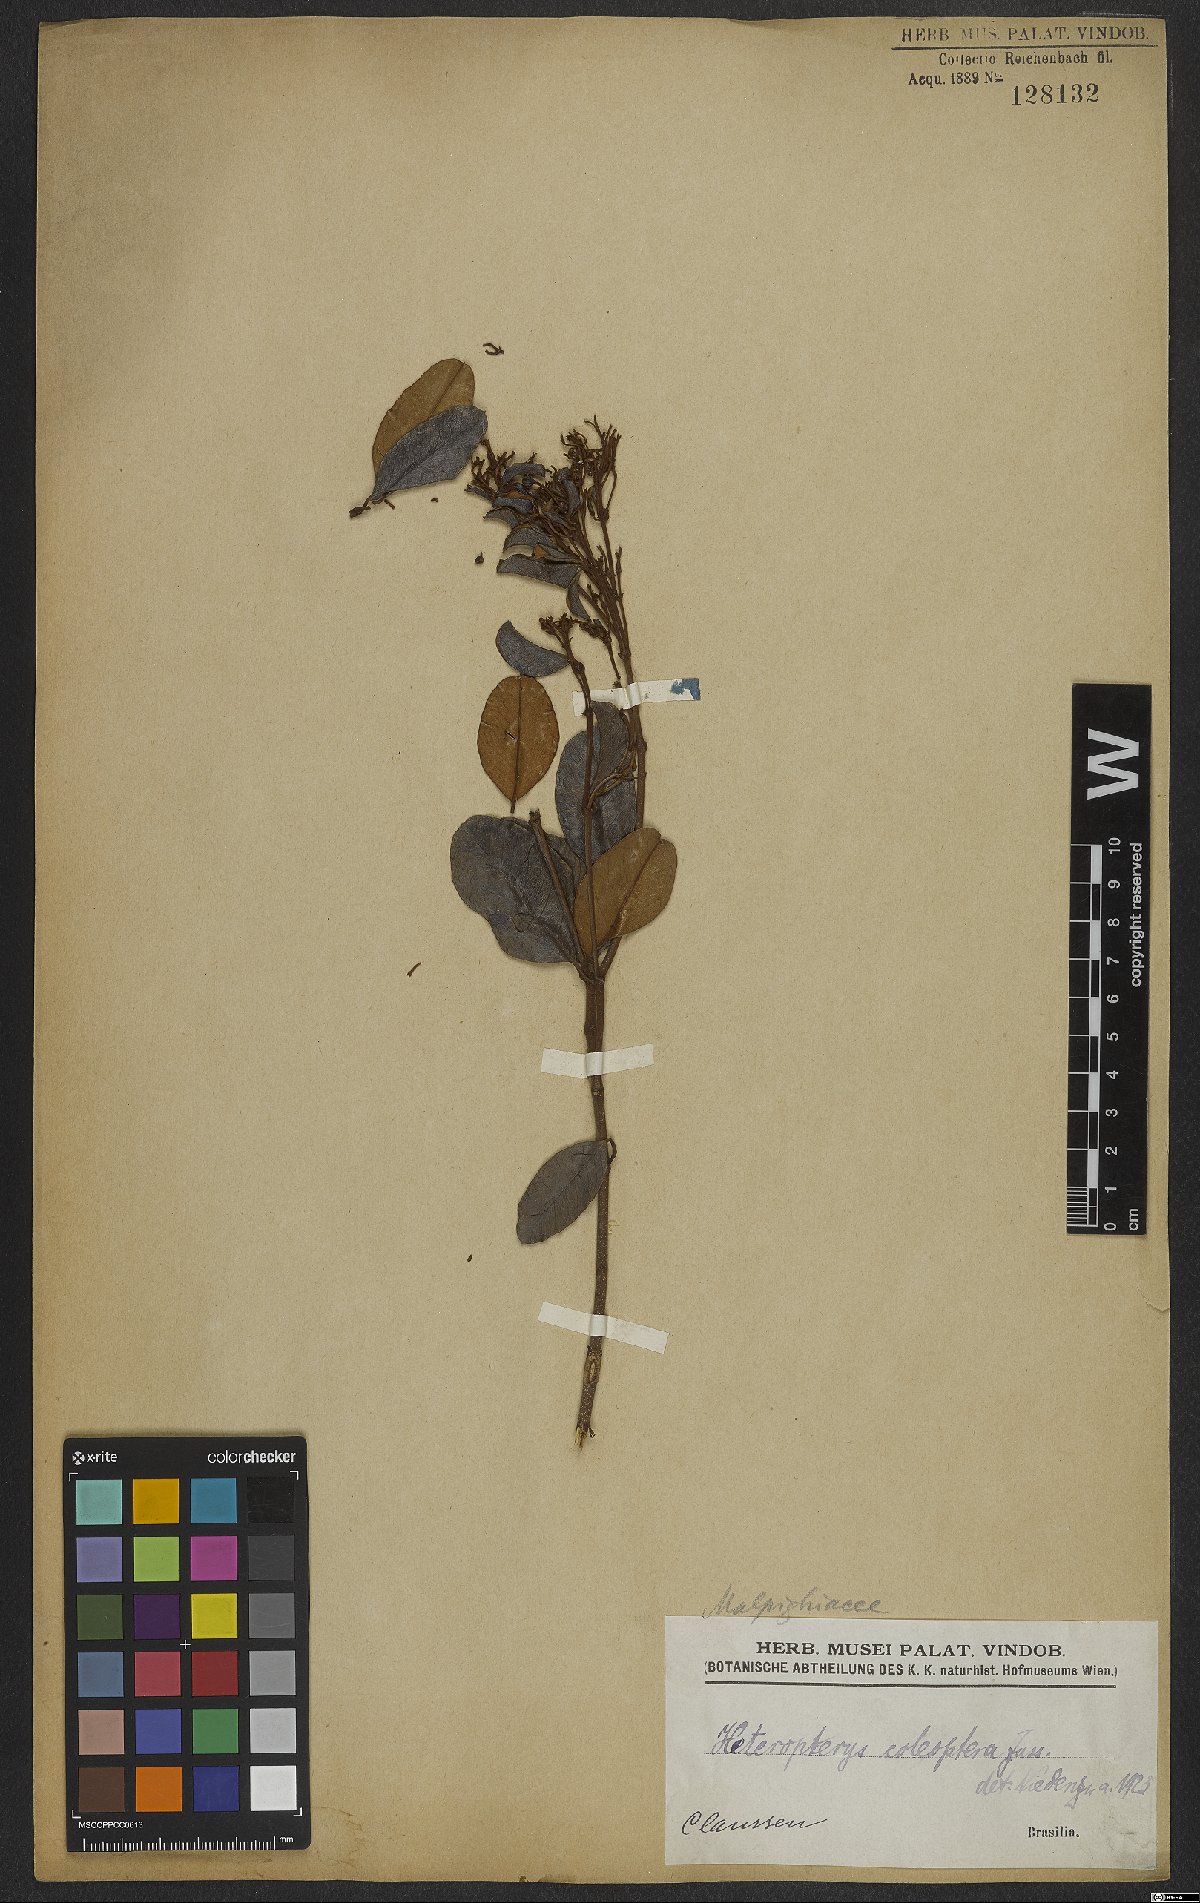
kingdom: Plantae
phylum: Tracheophyta
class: Magnoliopsida
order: Malpighiales
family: Malpighiaceae
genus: Heteropterys
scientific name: Heteropterys coleoptera
